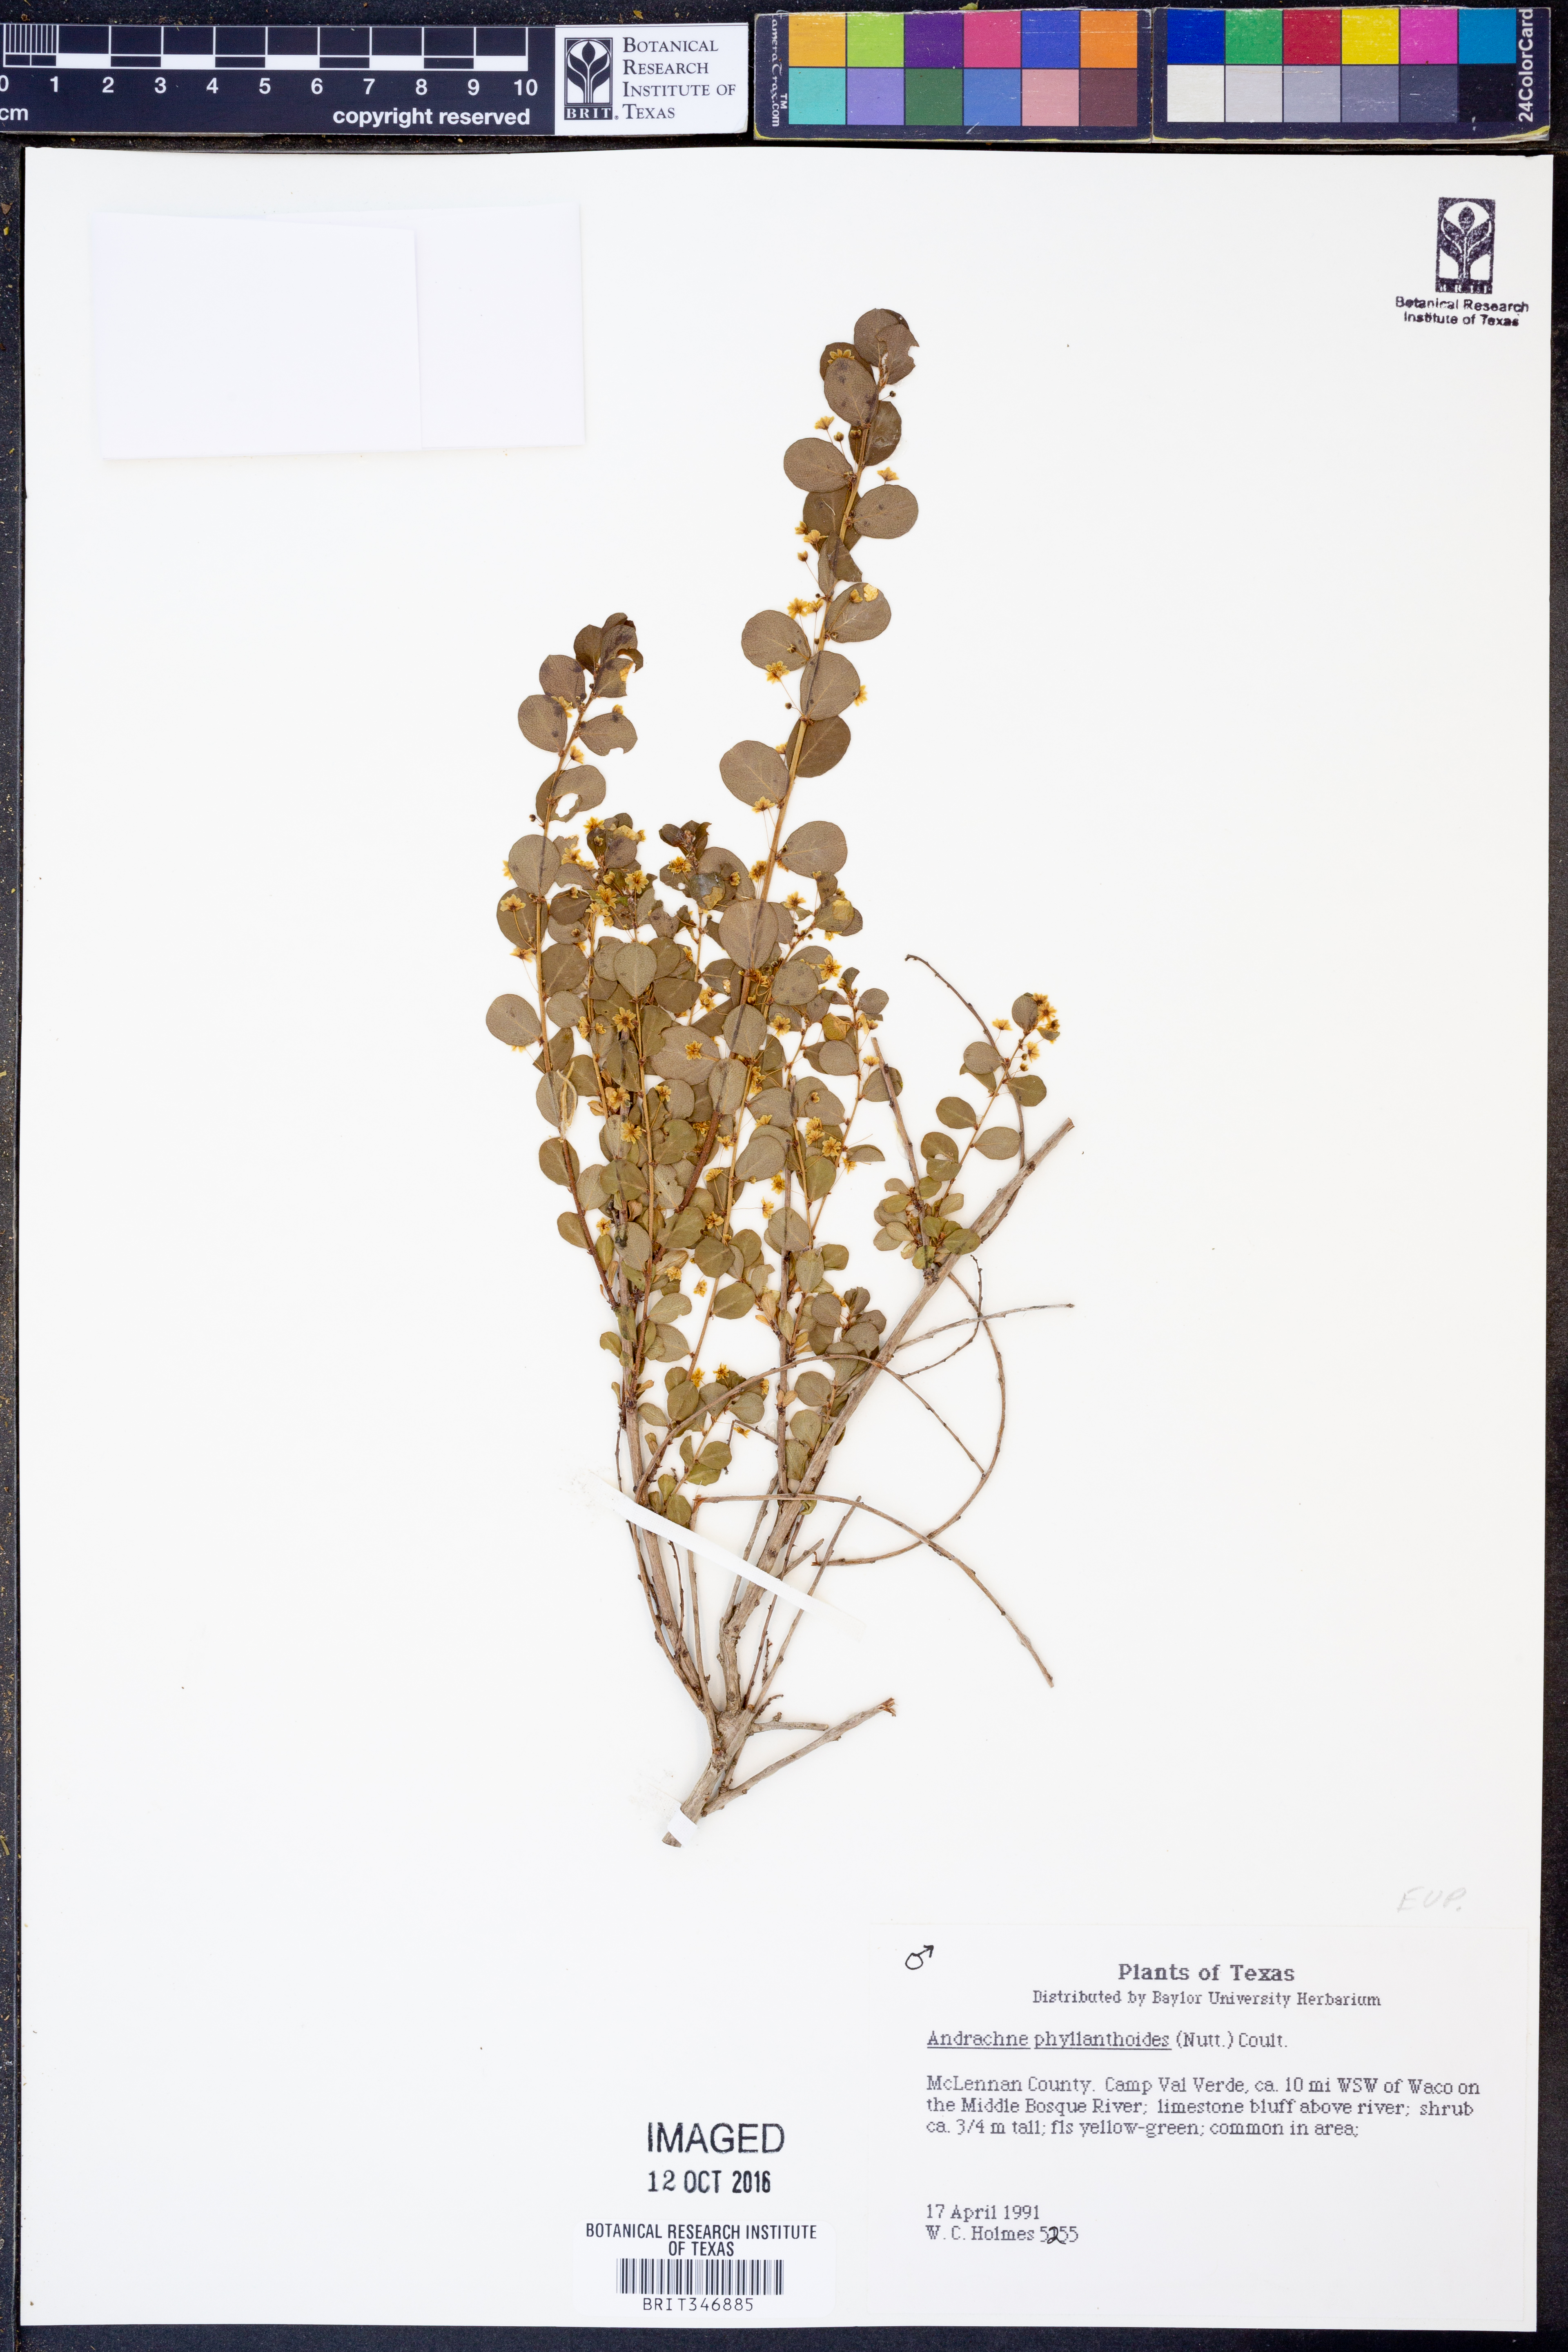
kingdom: Plantae
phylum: Tracheophyta
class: Magnoliopsida
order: Malpighiales
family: Phyllanthaceae
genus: Phyllanthopsis
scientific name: Phyllanthopsis phyllanthoides
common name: Missouri maidenbush
